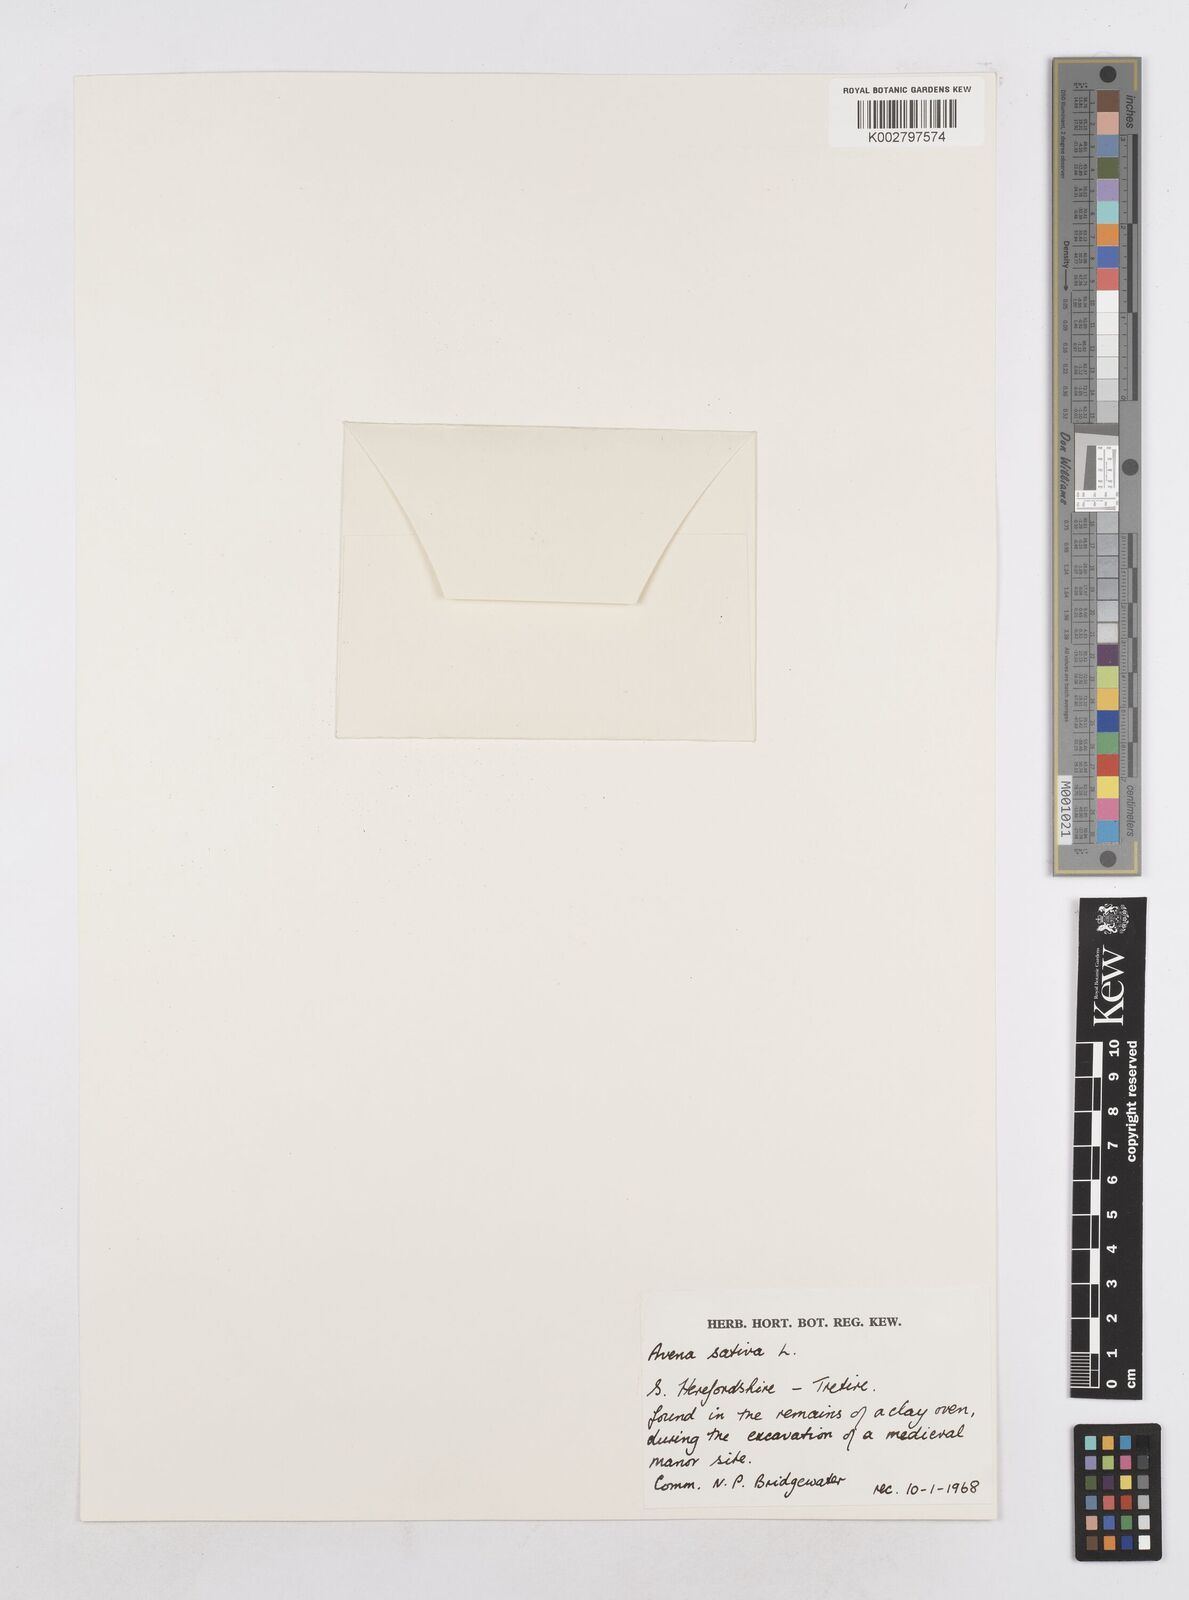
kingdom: Plantae
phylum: Tracheophyta
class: Liliopsida
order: Poales
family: Poaceae
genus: Avena
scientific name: Avena sativa
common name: Oat
